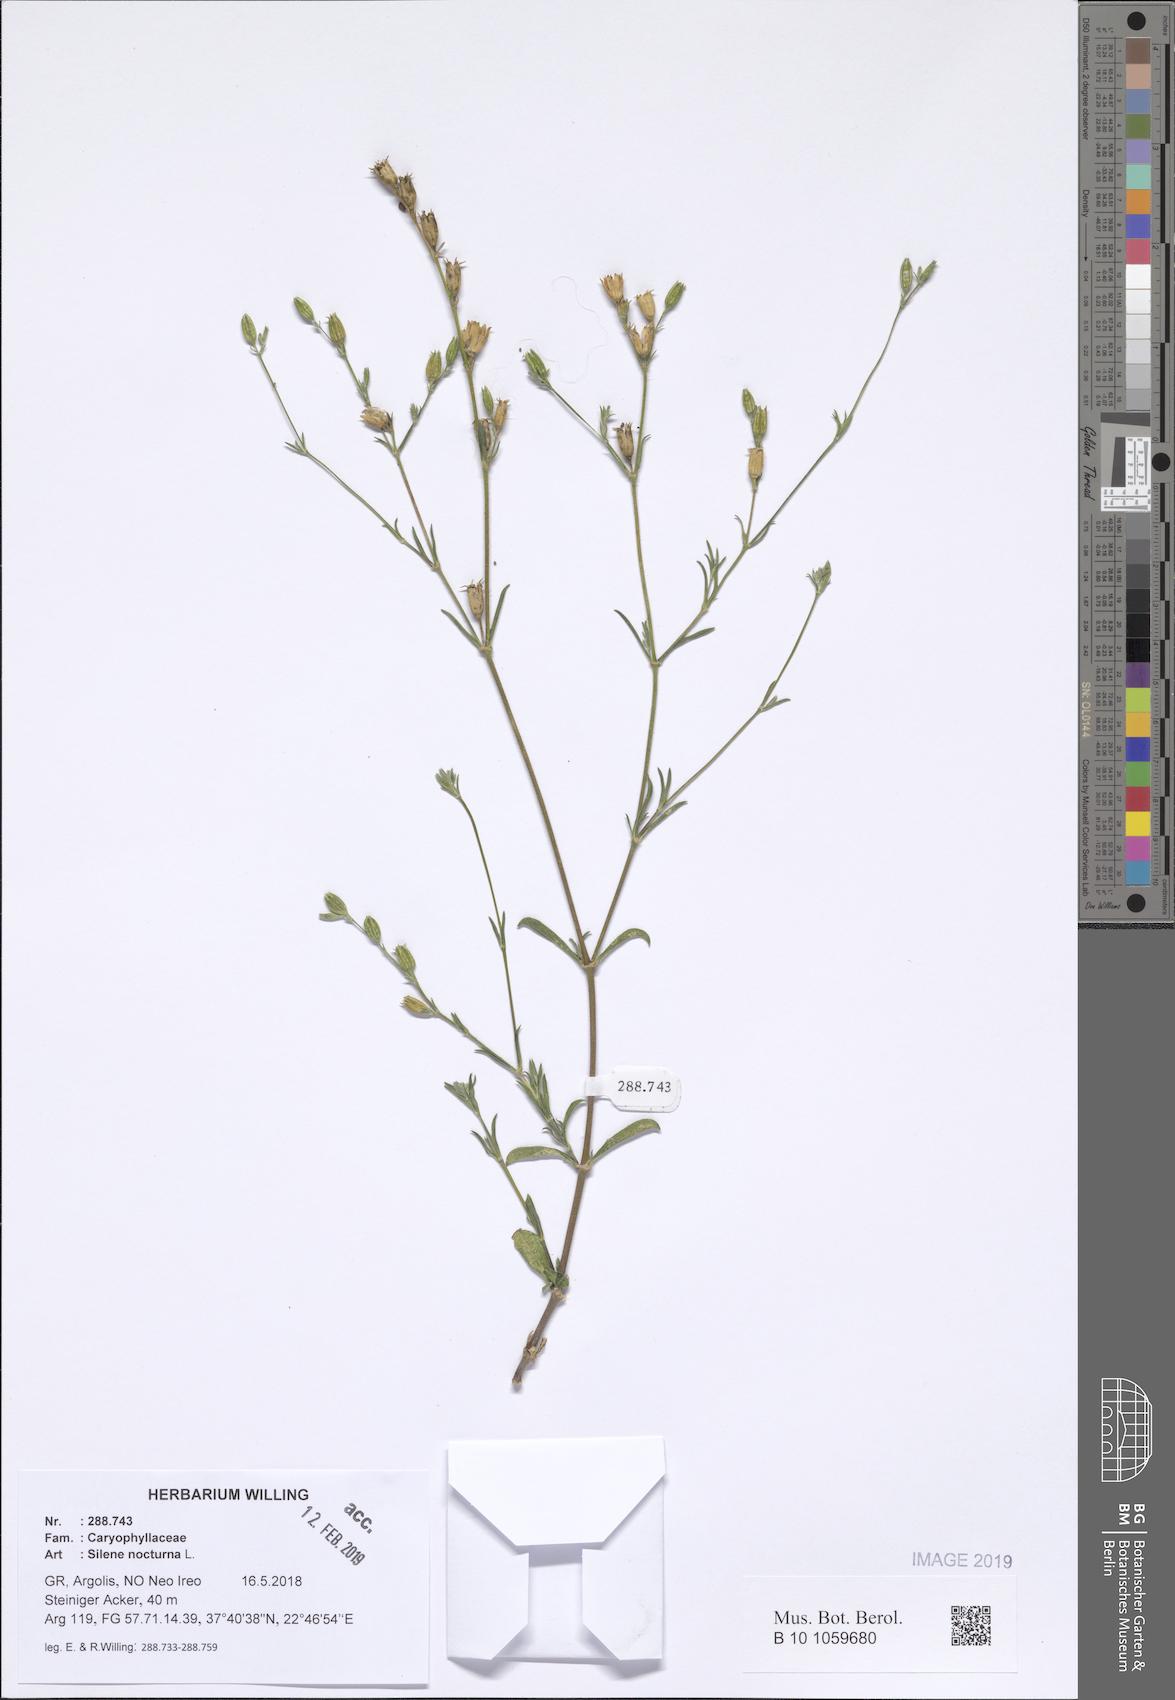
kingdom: Plantae
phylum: Tracheophyta
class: Magnoliopsida
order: Caryophyllales
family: Caryophyllaceae
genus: Silene
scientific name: Silene nocturna
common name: Mediterranean catchfly
